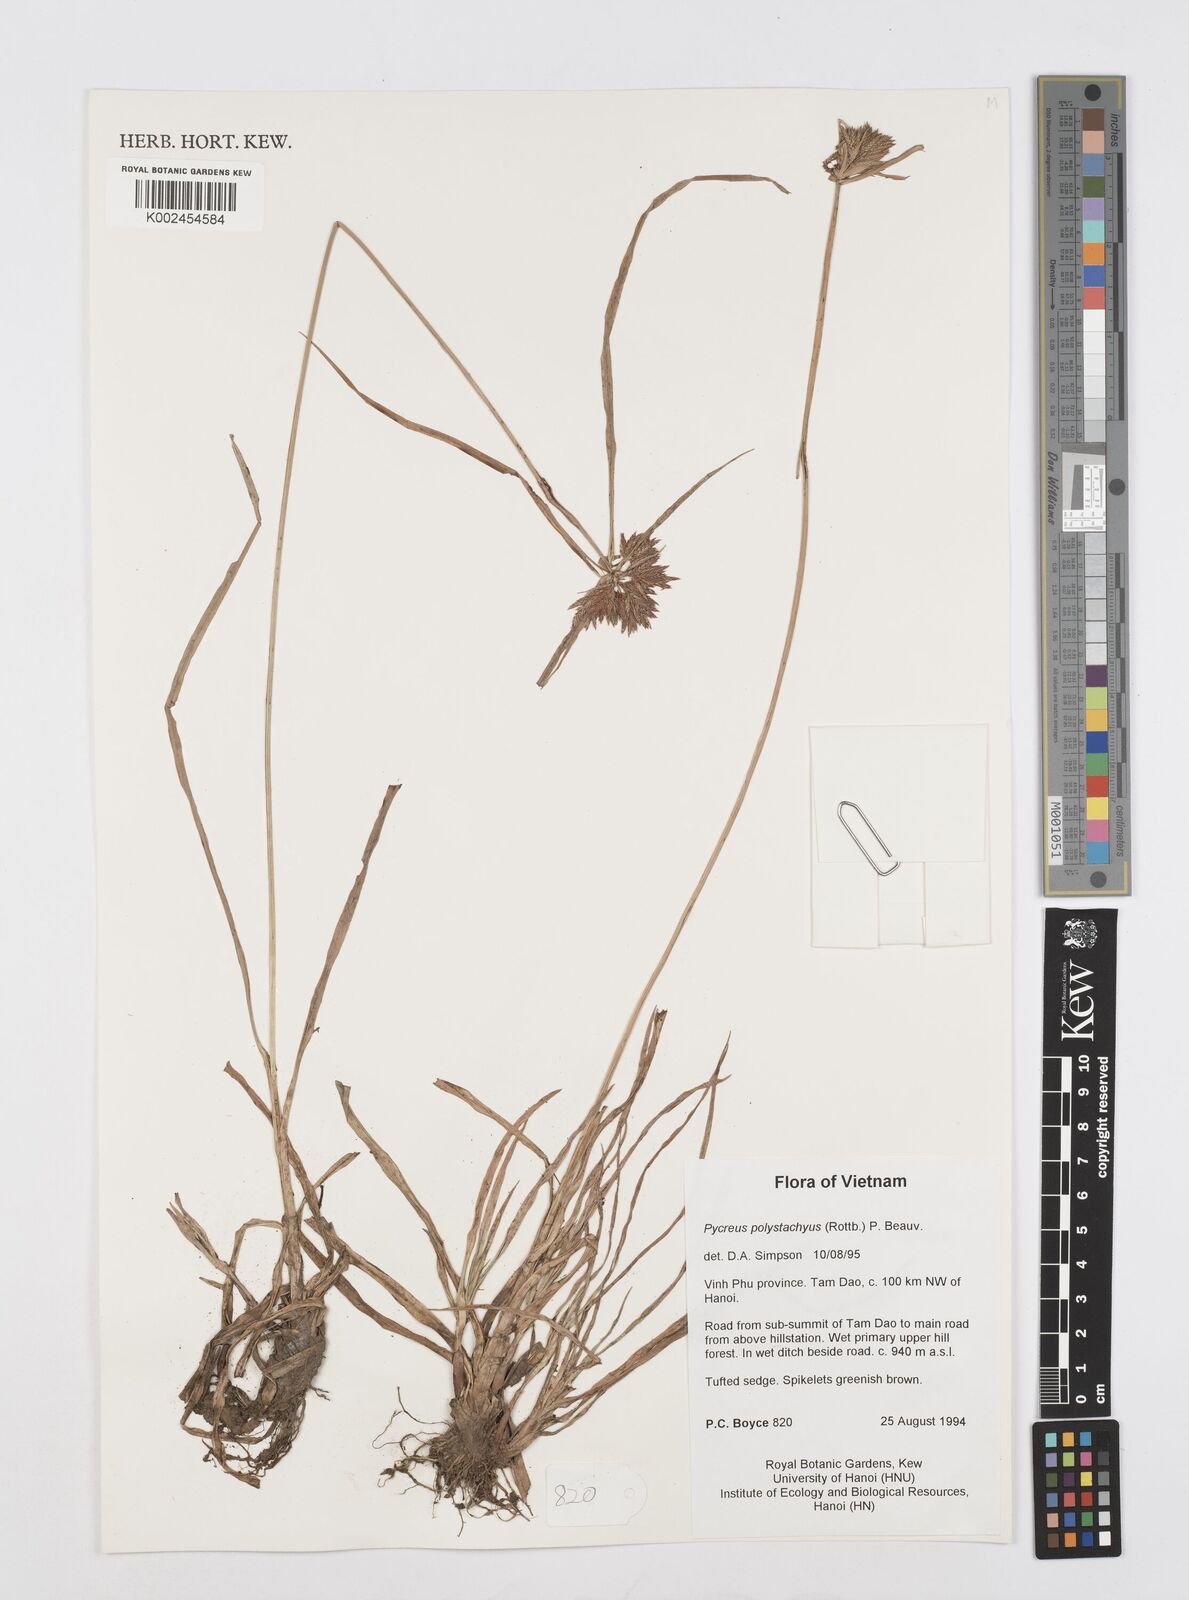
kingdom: Plantae
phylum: Tracheophyta
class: Liliopsida
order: Poales
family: Cyperaceae
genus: Cyperus
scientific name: Cyperus polystachyos
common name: Bunchy flat sedge
